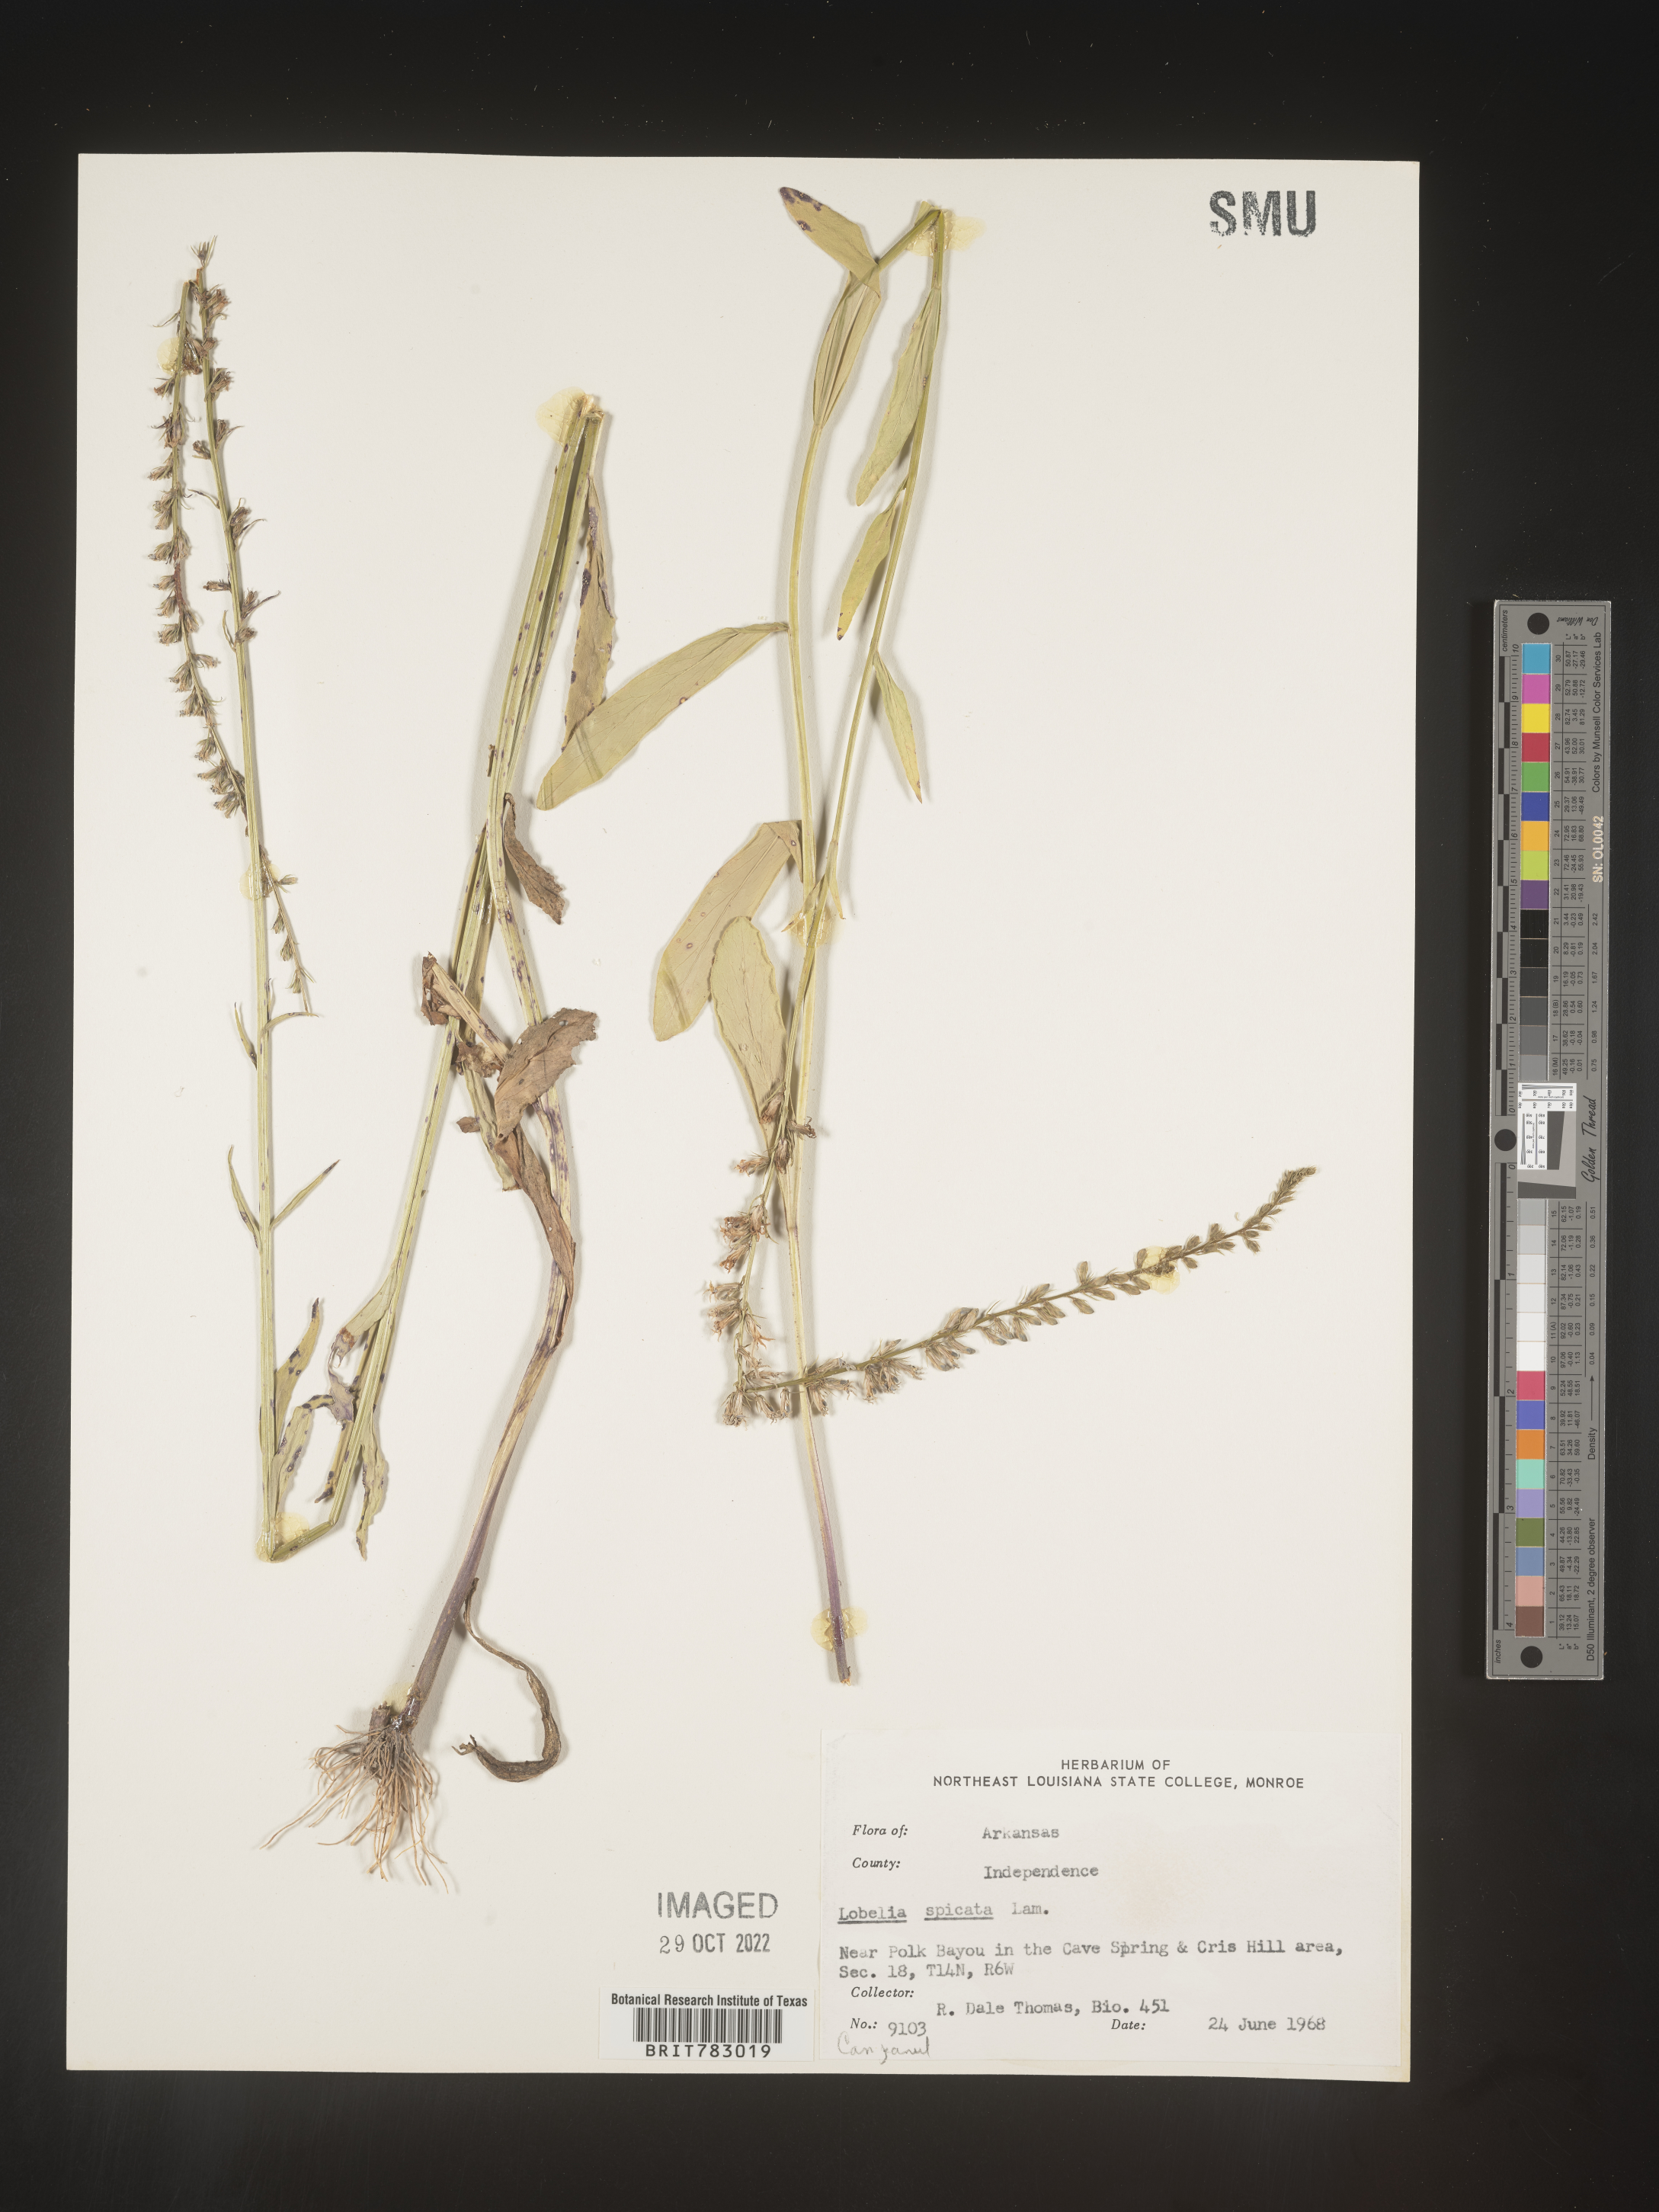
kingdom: Plantae
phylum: Tracheophyta
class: Magnoliopsida
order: Asterales
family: Campanulaceae
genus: Lobelia
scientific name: Lobelia spicata
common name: Pale-spike lobelia
